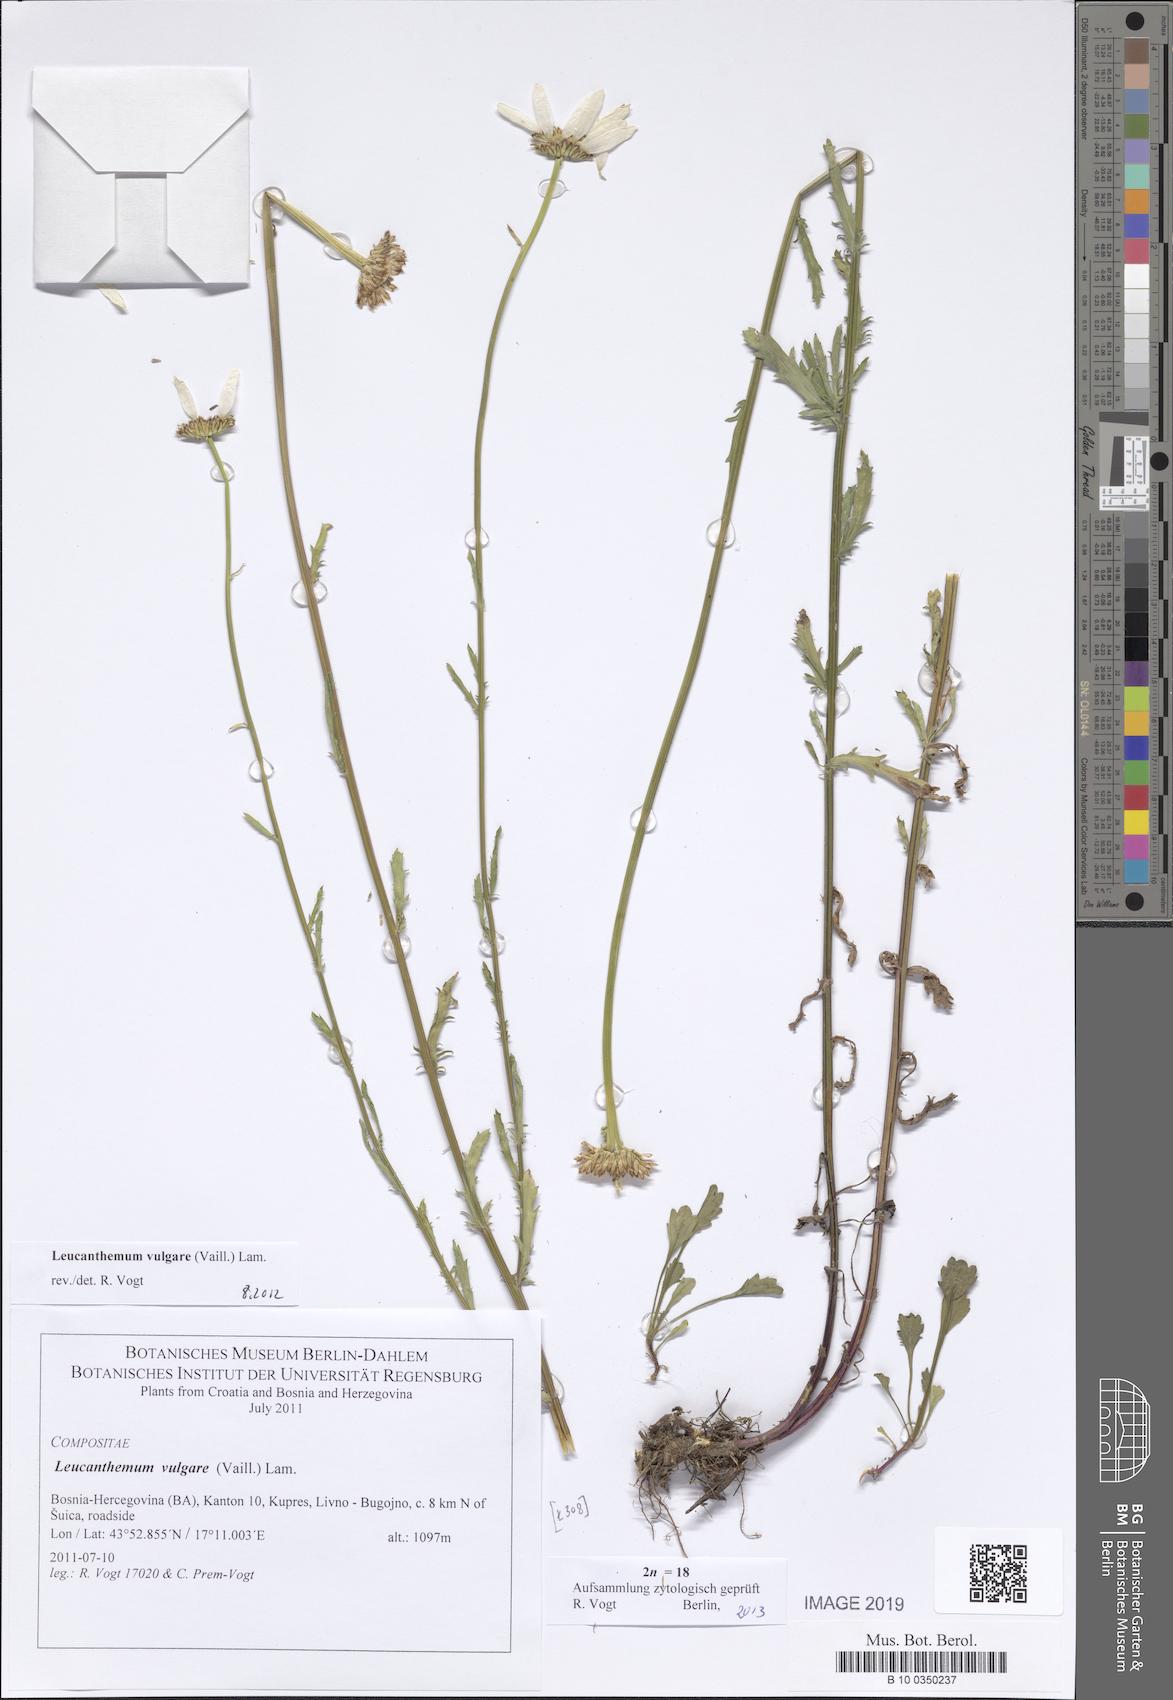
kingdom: Plantae
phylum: Tracheophyta
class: Magnoliopsida
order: Asterales
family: Asteraceae
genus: Leucanthemum
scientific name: Leucanthemum vulgare
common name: Oxeye daisy
